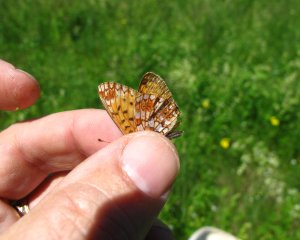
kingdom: Animalia
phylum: Arthropoda
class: Insecta
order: Lepidoptera
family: Nymphalidae
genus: Boloria
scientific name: Boloria selene
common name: Silver-bordered Fritillary
